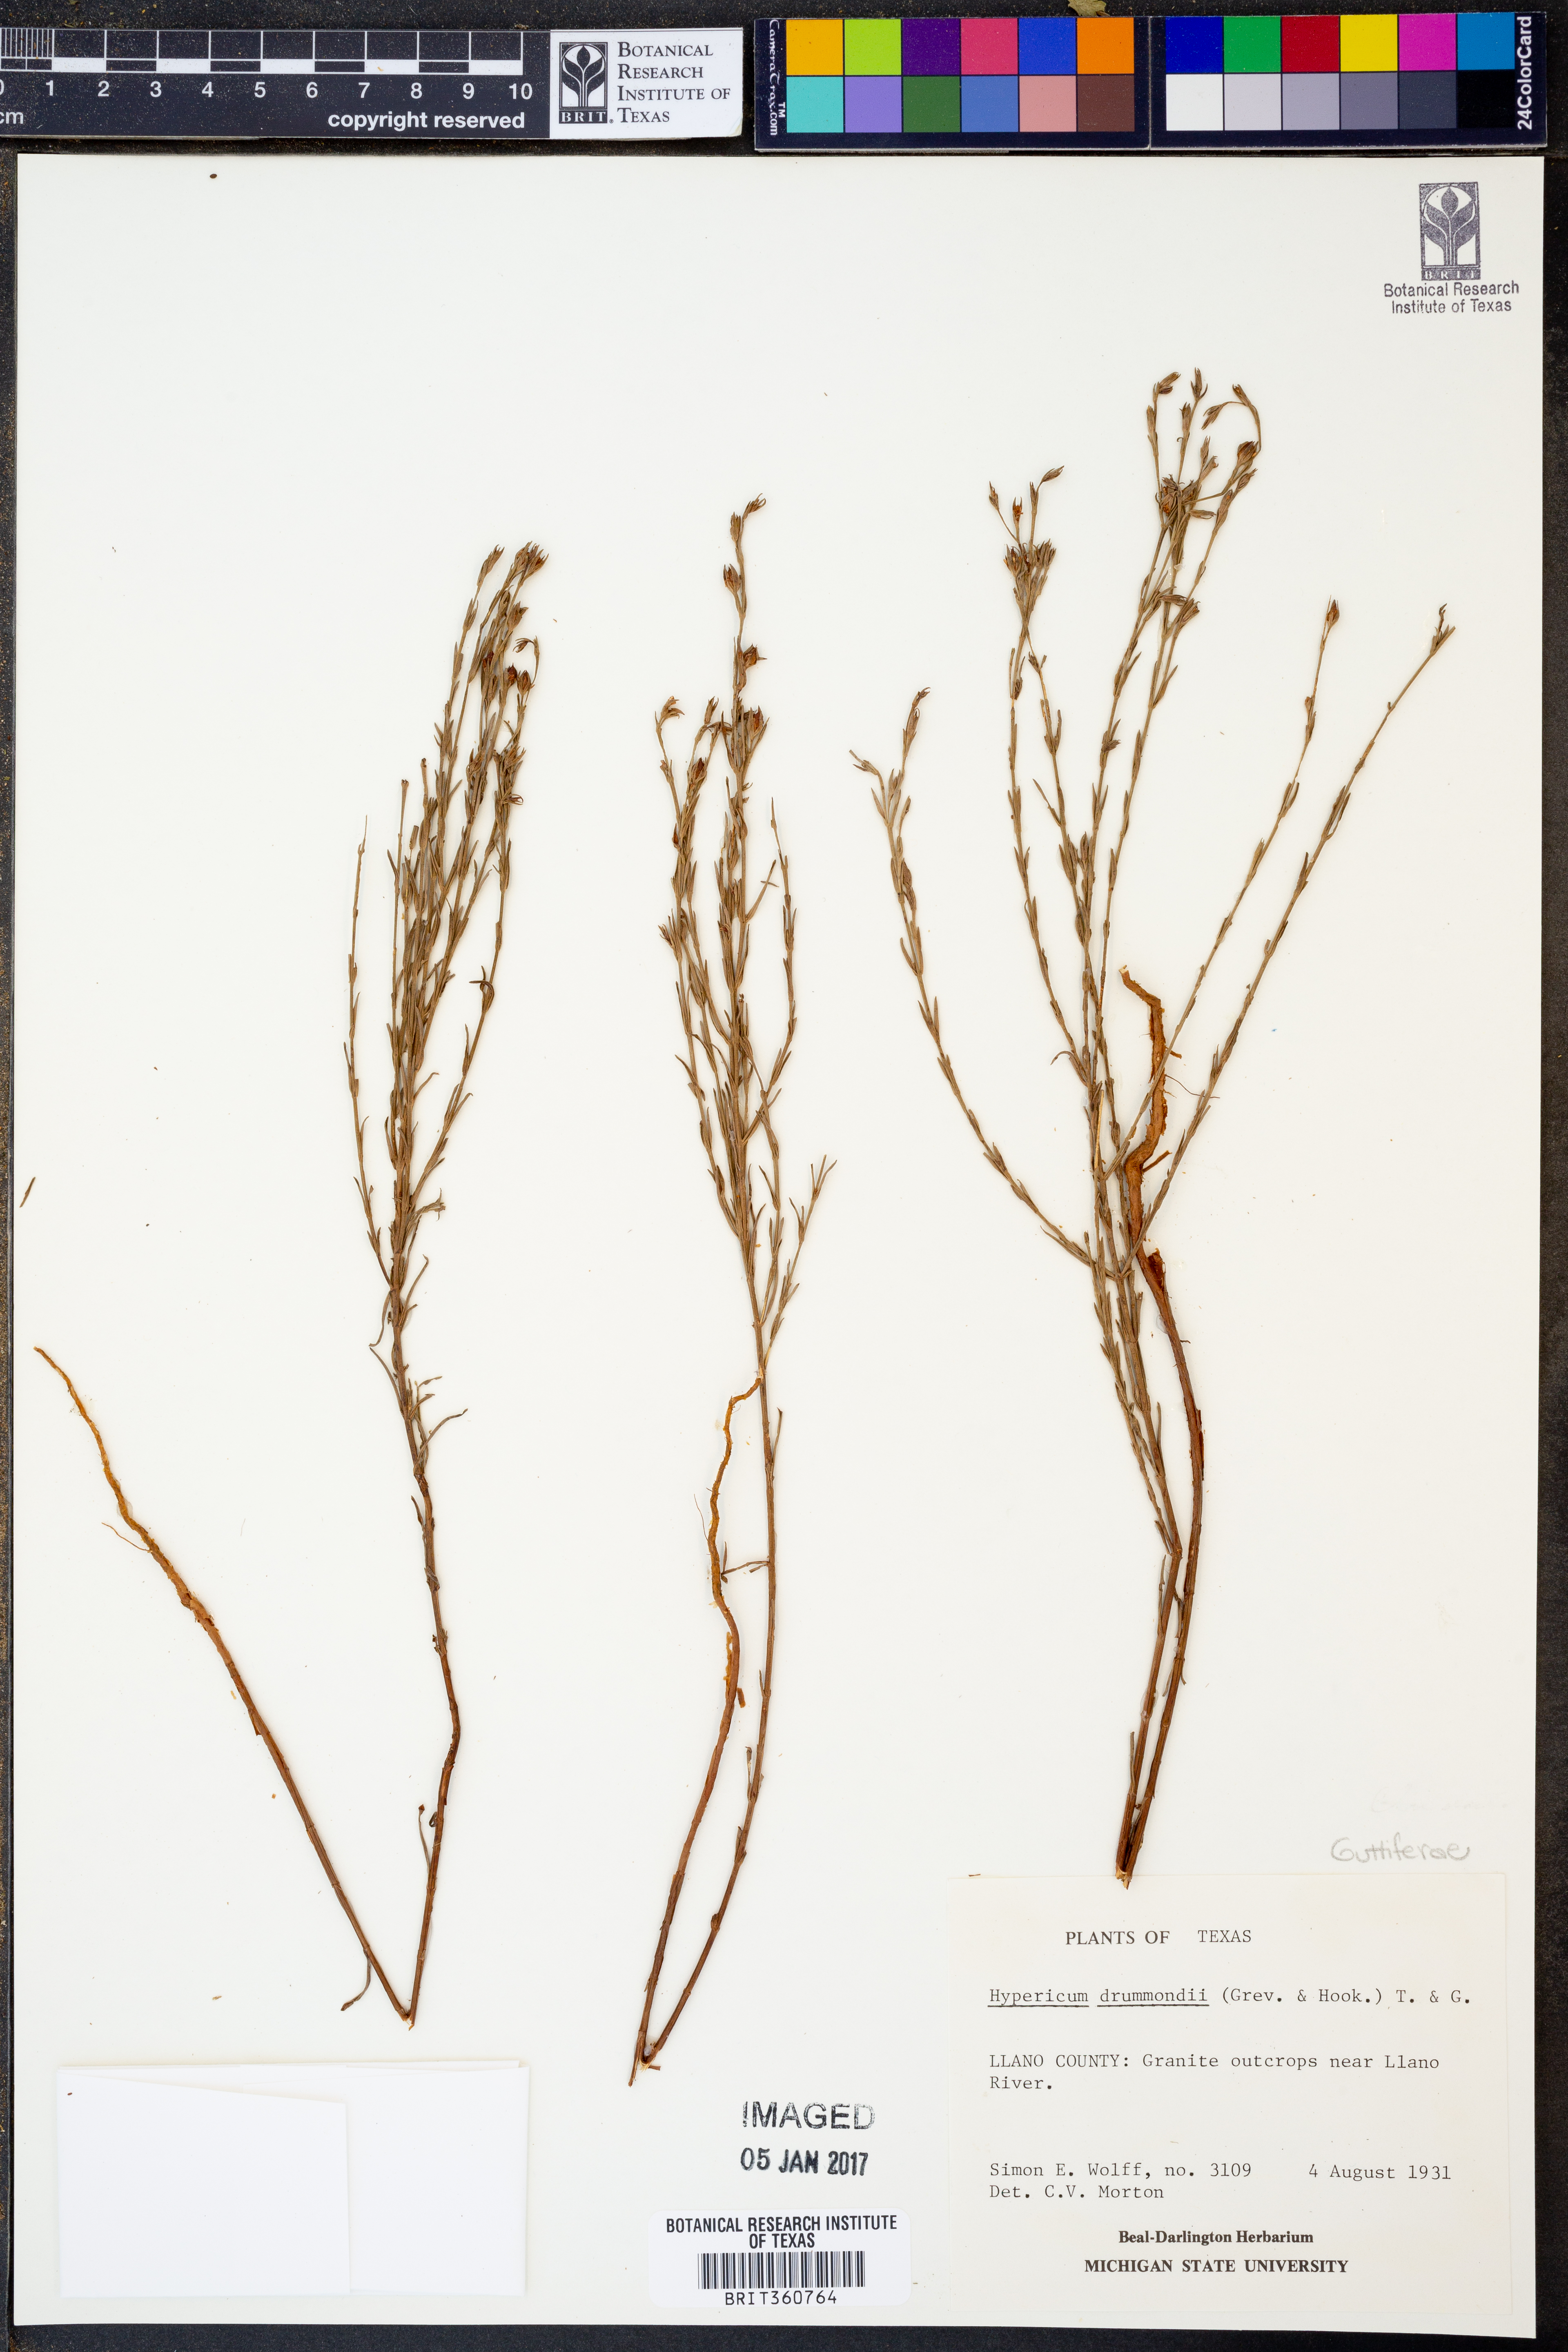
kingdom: Plantae
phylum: Tracheophyta
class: Magnoliopsida
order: Malpighiales
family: Hypericaceae
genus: Hypericum
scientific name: Hypericum drummondii
